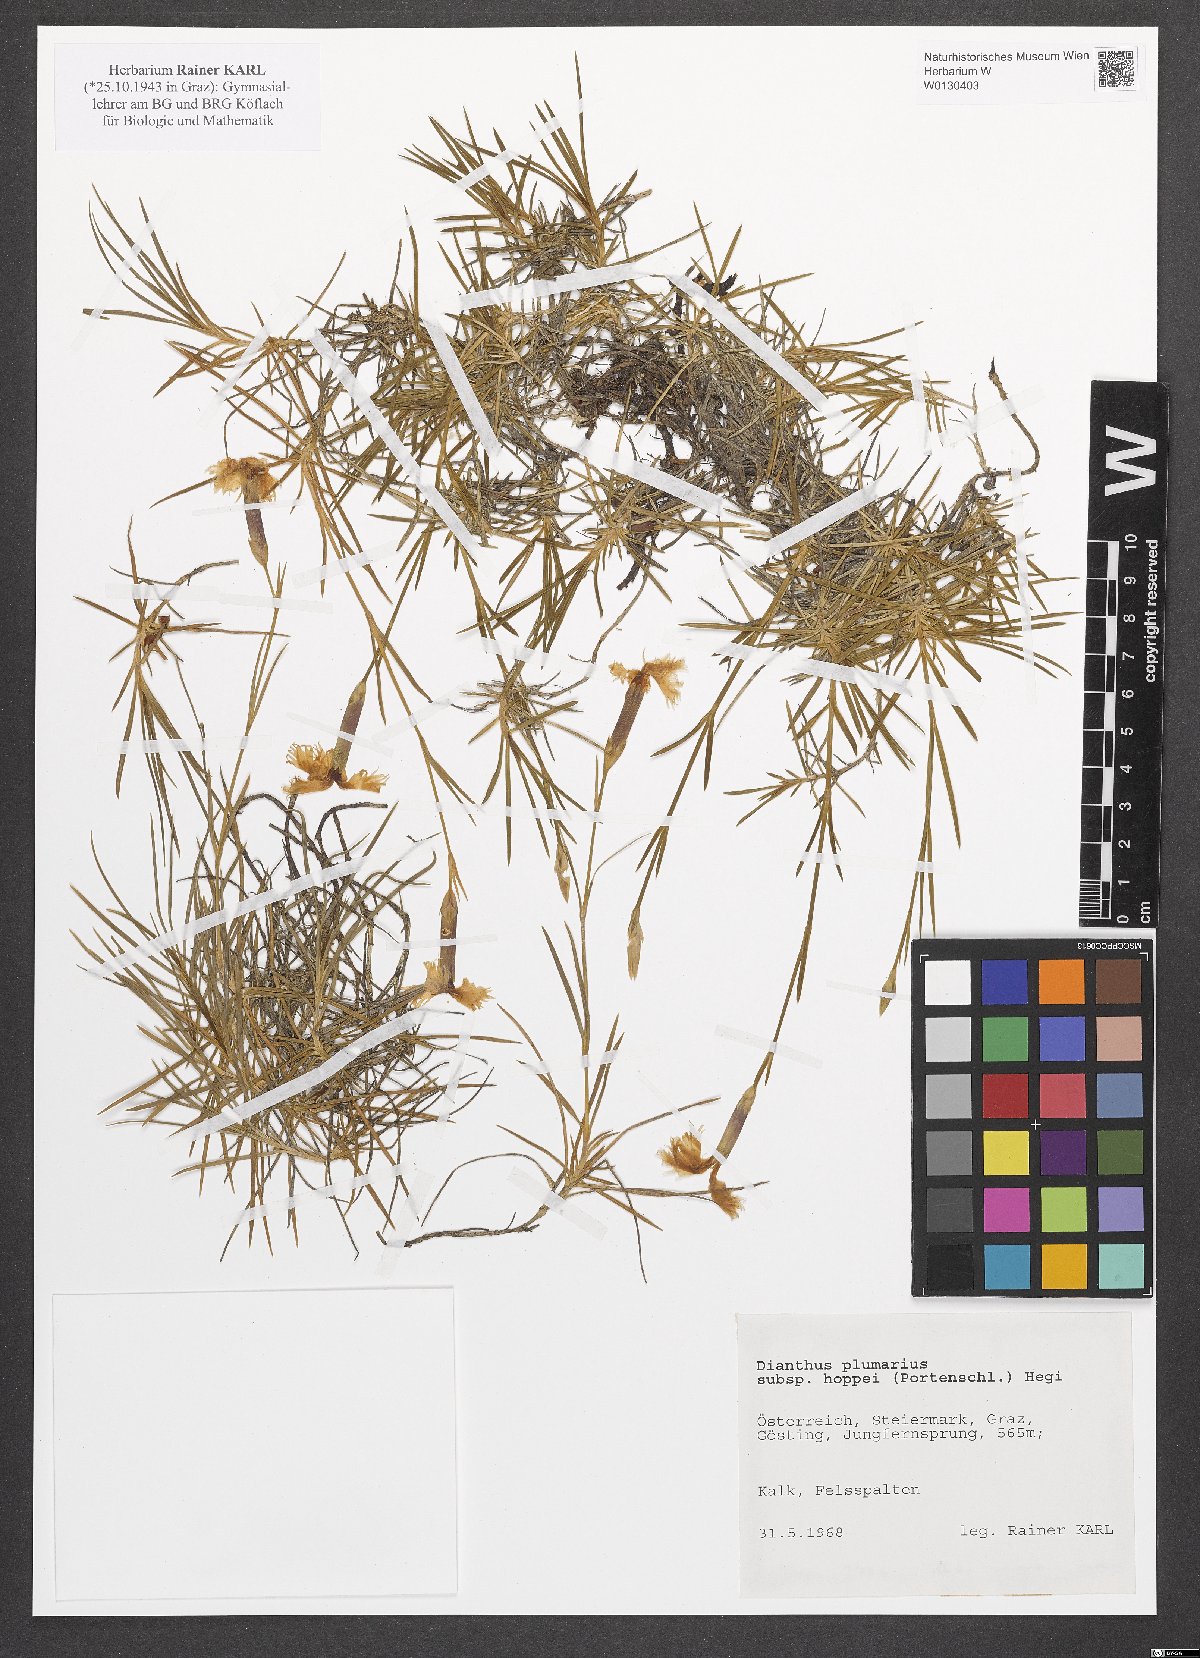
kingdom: Plantae
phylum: Tracheophyta
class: Magnoliopsida
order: Caryophyllales
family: Caryophyllaceae
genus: Dianthus
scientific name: Dianthus plumarius
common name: Pink
